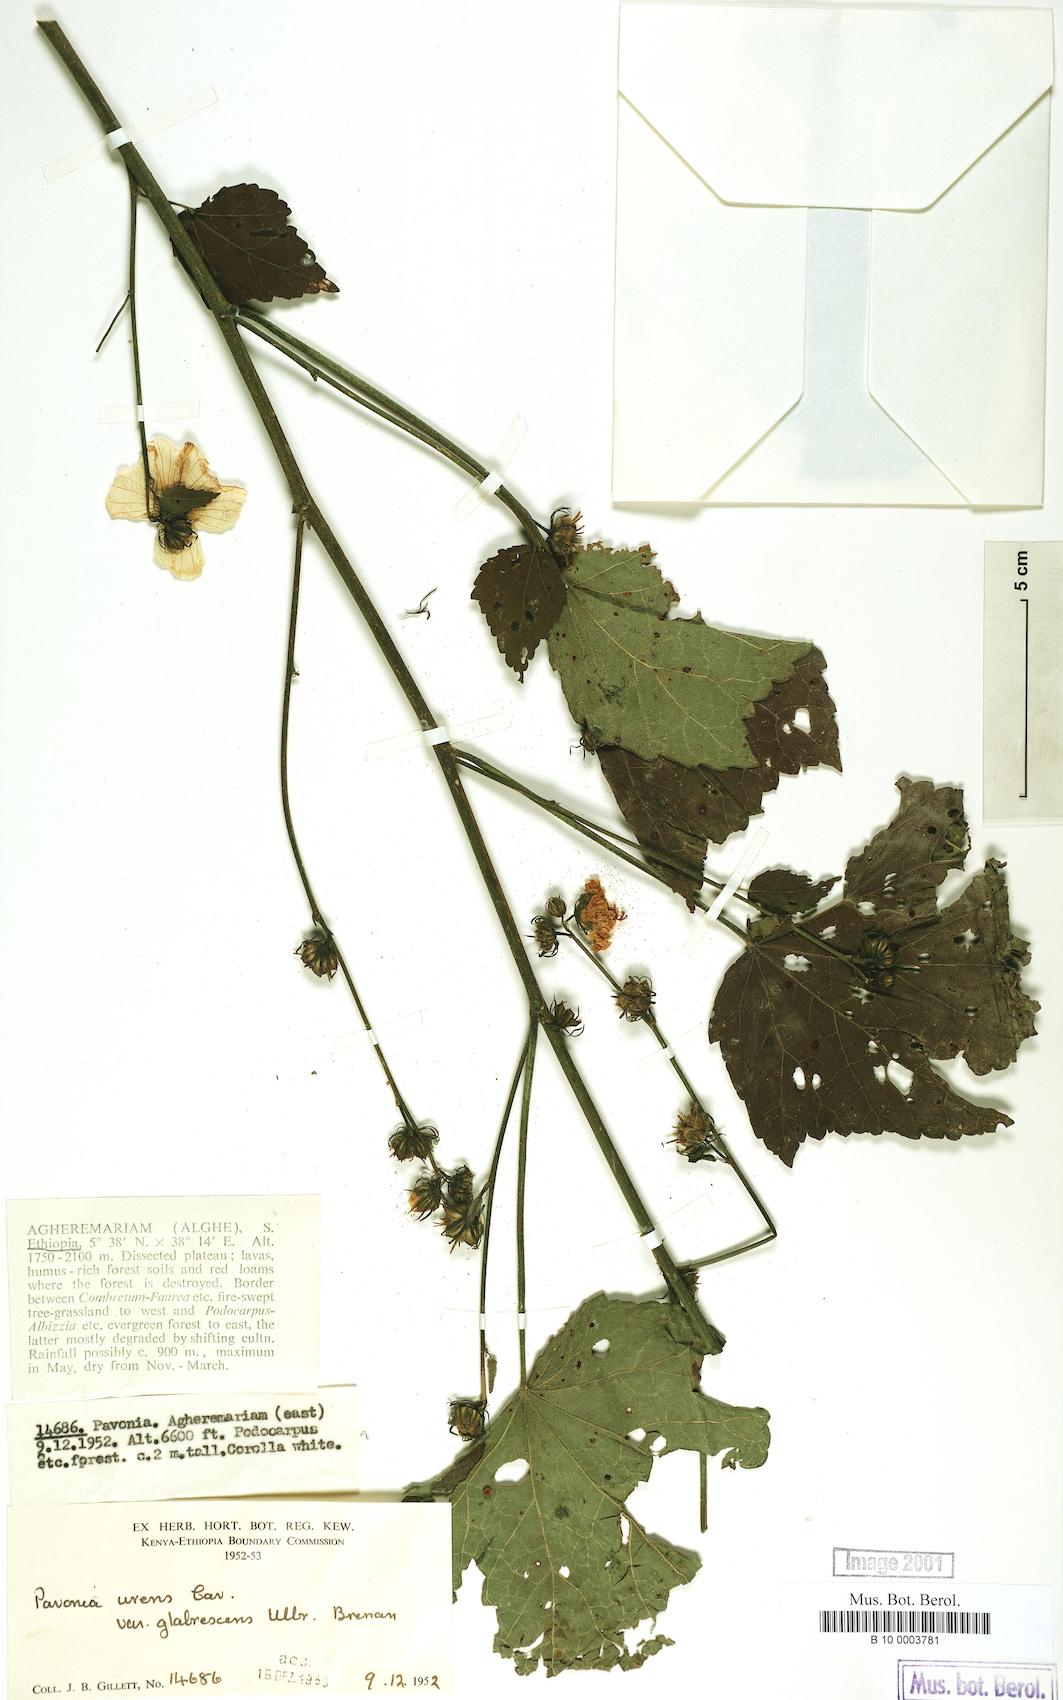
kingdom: Plantae
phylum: Tracheophyta
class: Magnoliopsida
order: Malvales
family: Malvaceae
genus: Pavonia
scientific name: Pavonia schimperiana
